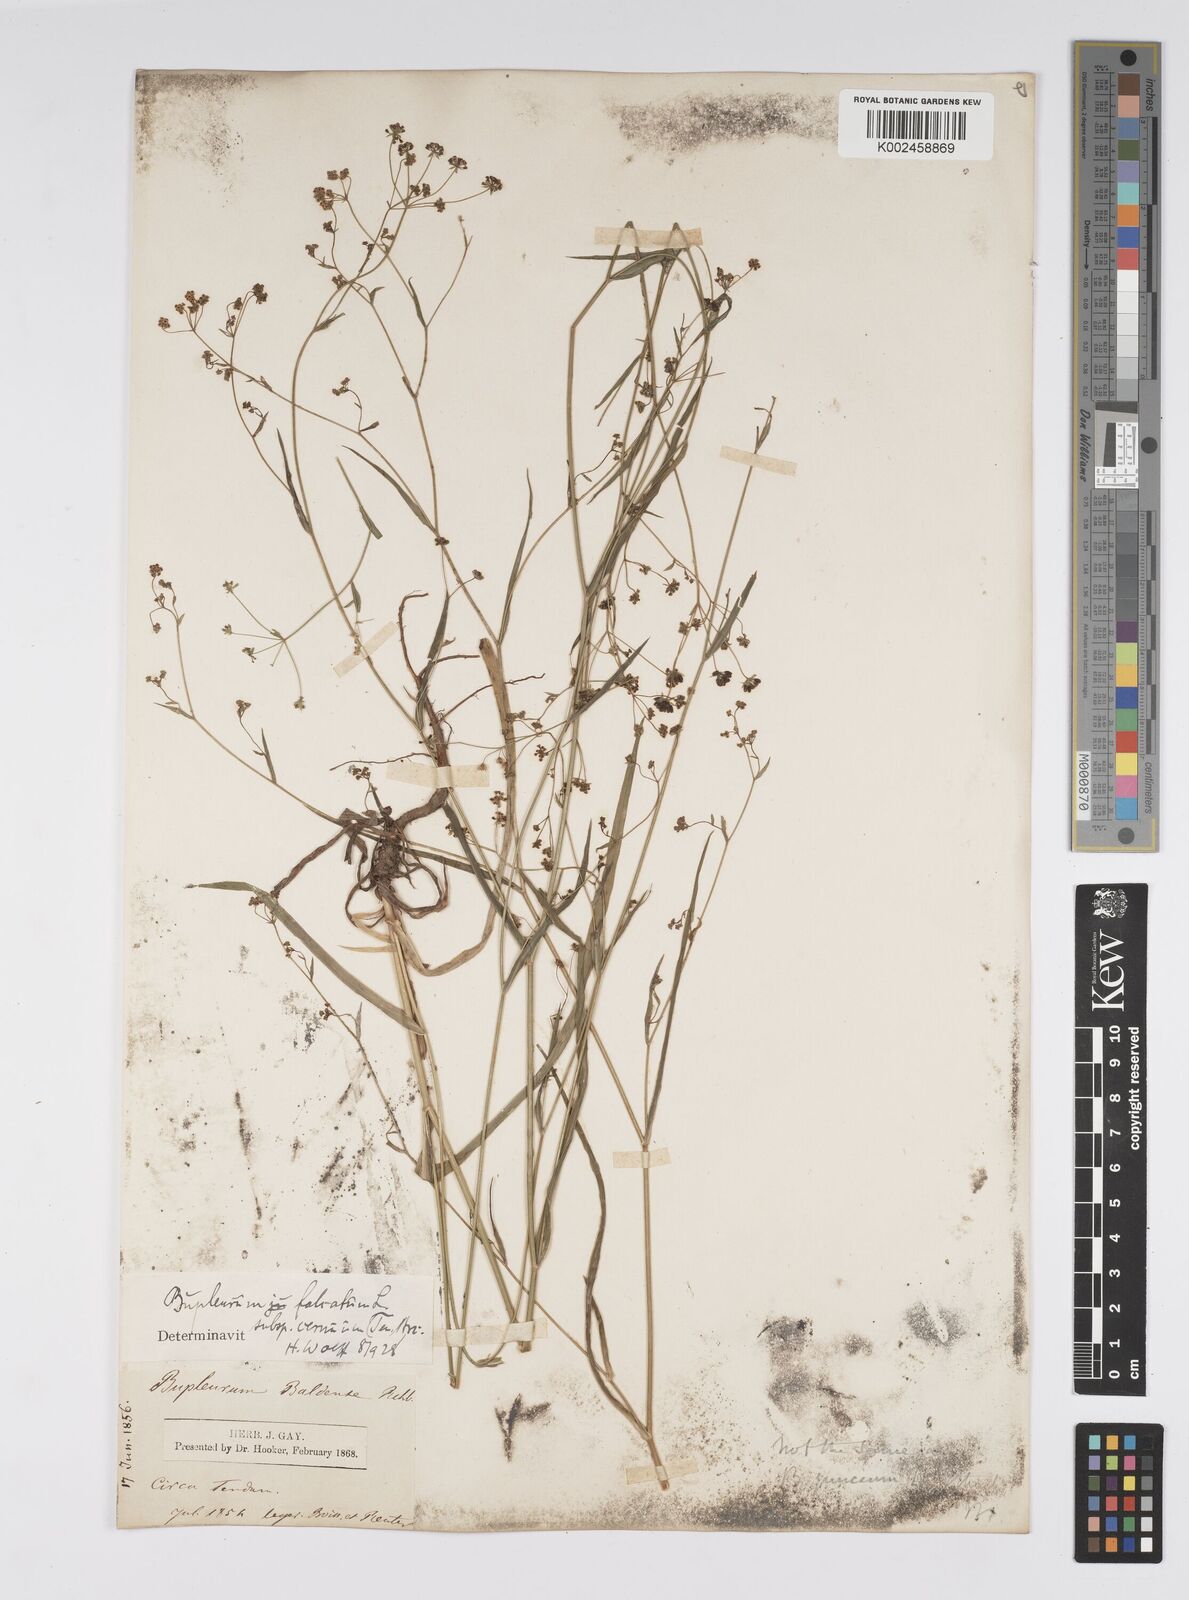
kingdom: Plantae
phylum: Tracheophyta
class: Magnoliopsida
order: Apiales
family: Apiaceae
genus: Bupleurum
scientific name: Bupleurum falcatum
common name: Sickle-leaved hare's-ear
